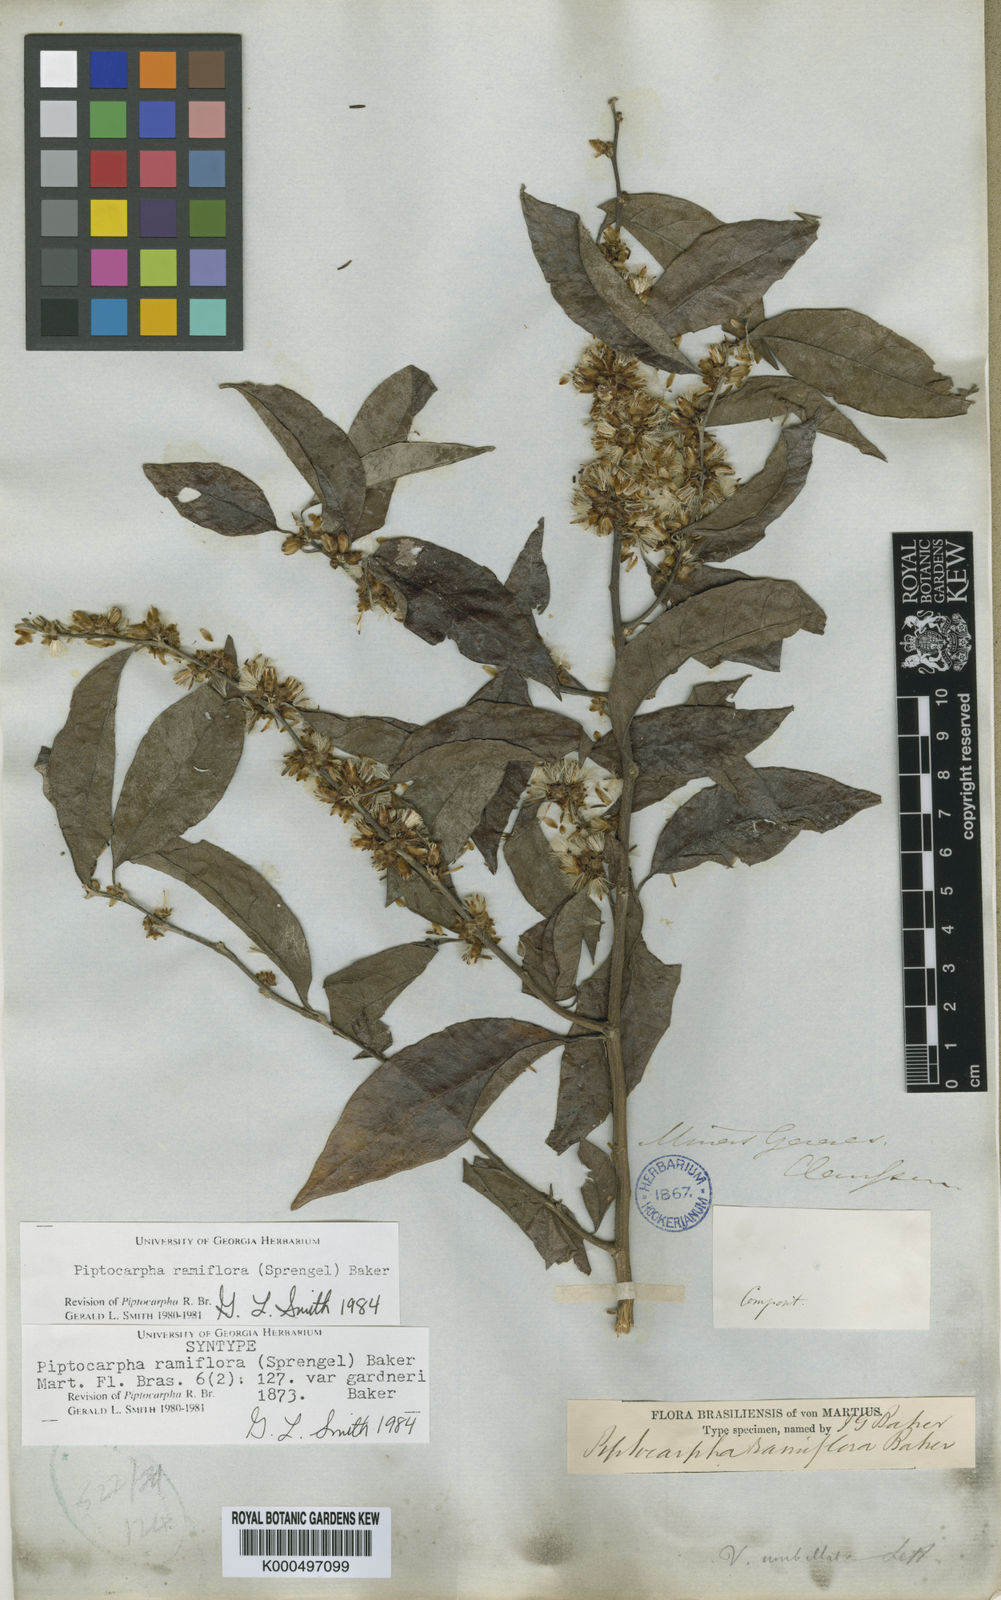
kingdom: Plantae
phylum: Tracheophyta
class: Magnoliopsida
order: Asterales
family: Asteraceae
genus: Piptocarpha
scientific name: Piptocarpha ramiflora
